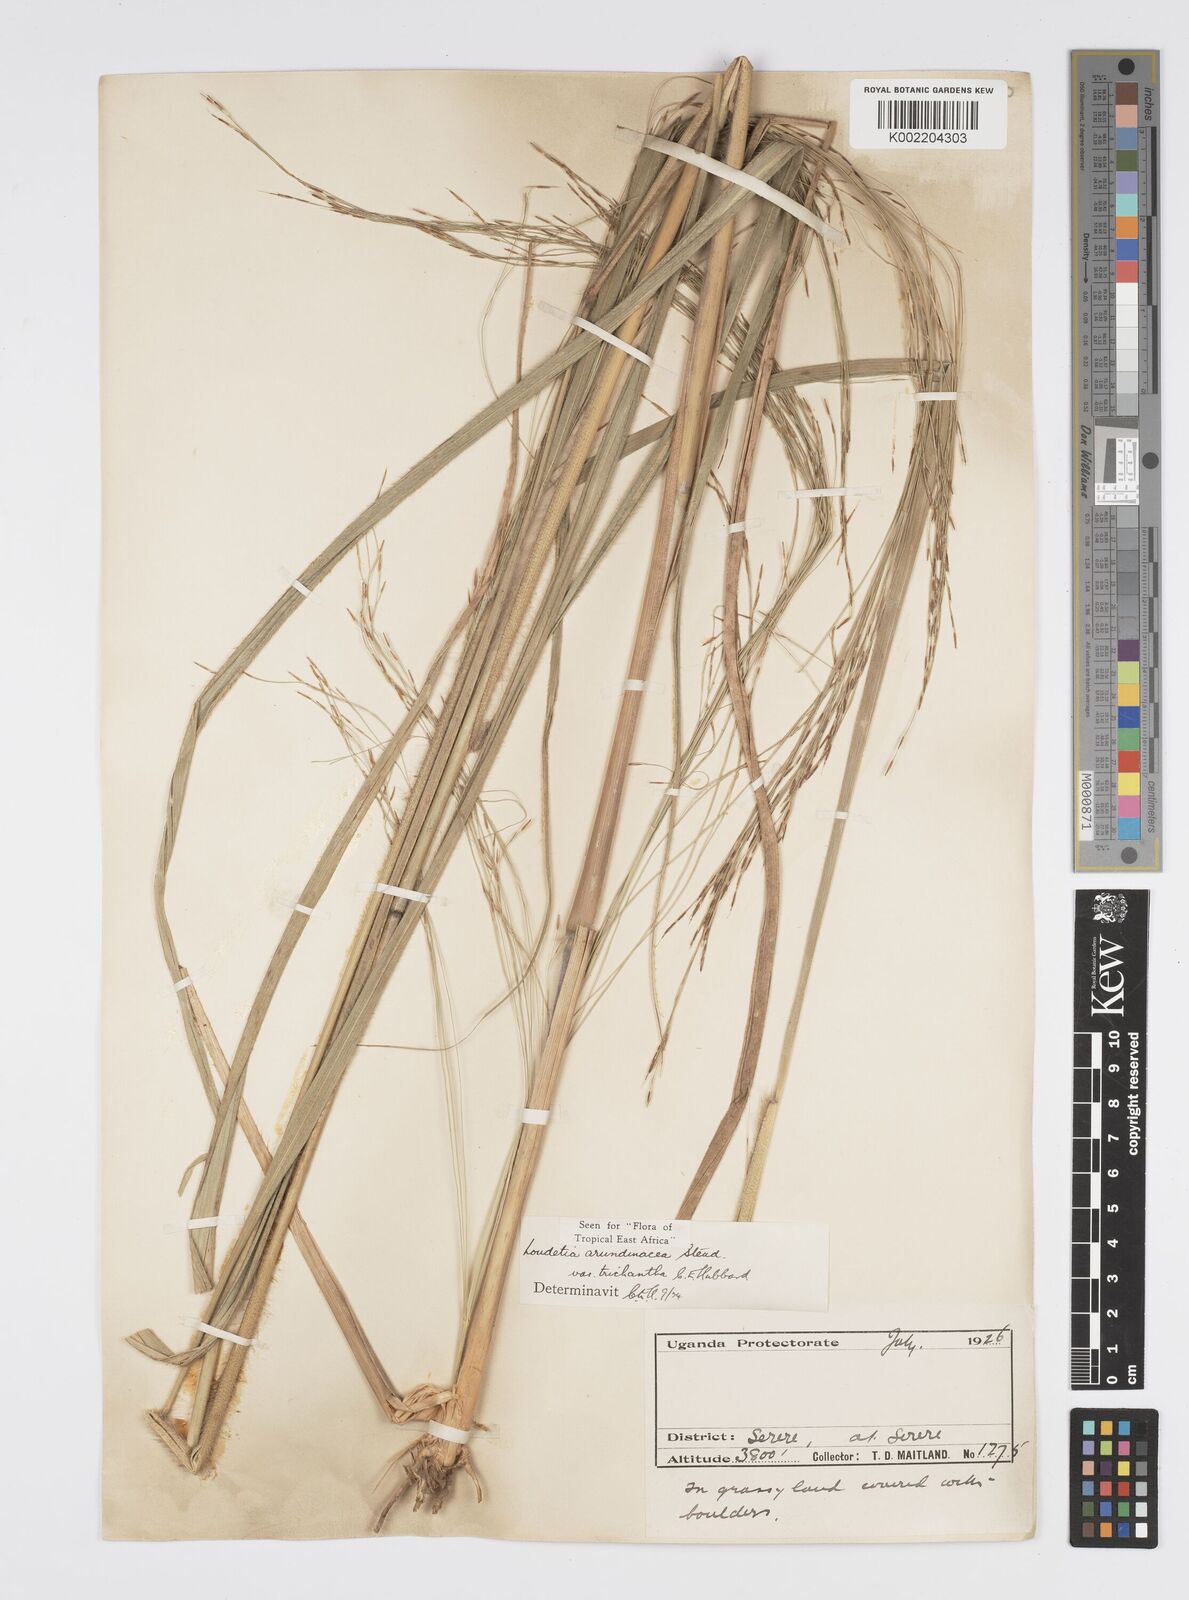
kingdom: Plantae
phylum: Tracheophyta
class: Liliopsida
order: Poales
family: Poaceae
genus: Loudetia
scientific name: Loudetia arundinacea
